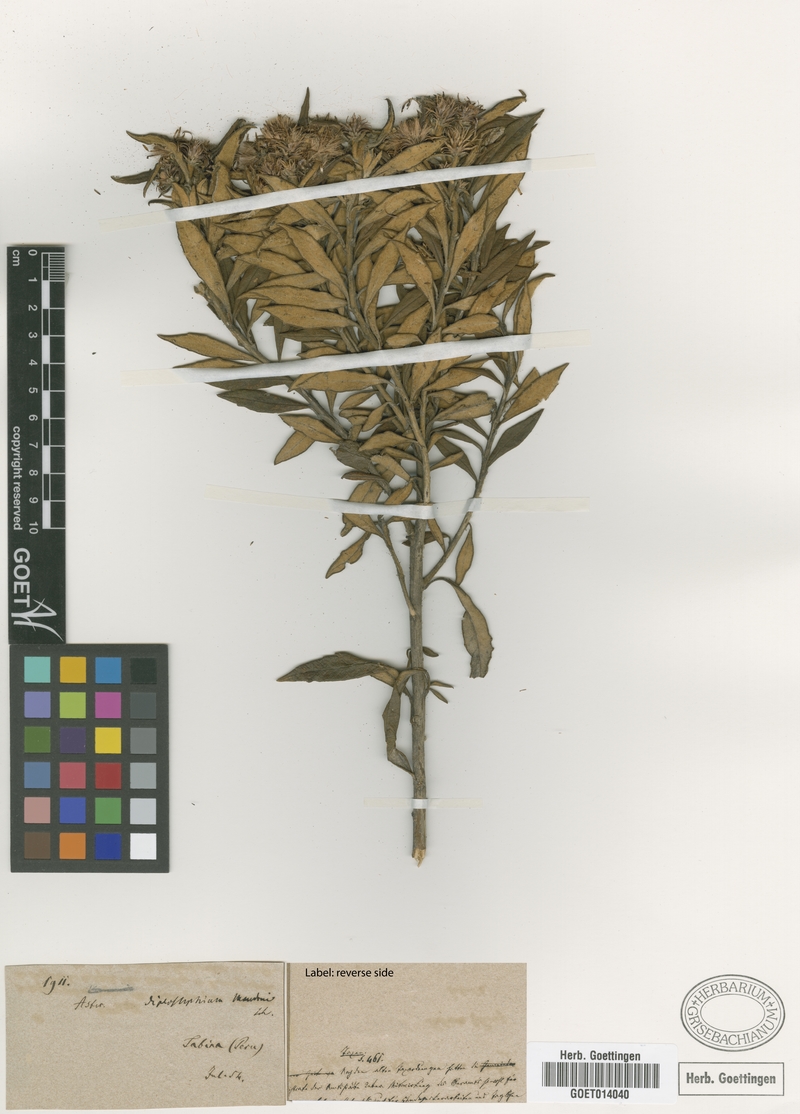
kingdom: Plantae
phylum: Tracheophyta
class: Magnoliopsida
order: Asterales
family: Asteraceae
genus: Diplostephium
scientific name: Diplostephium haenkei
